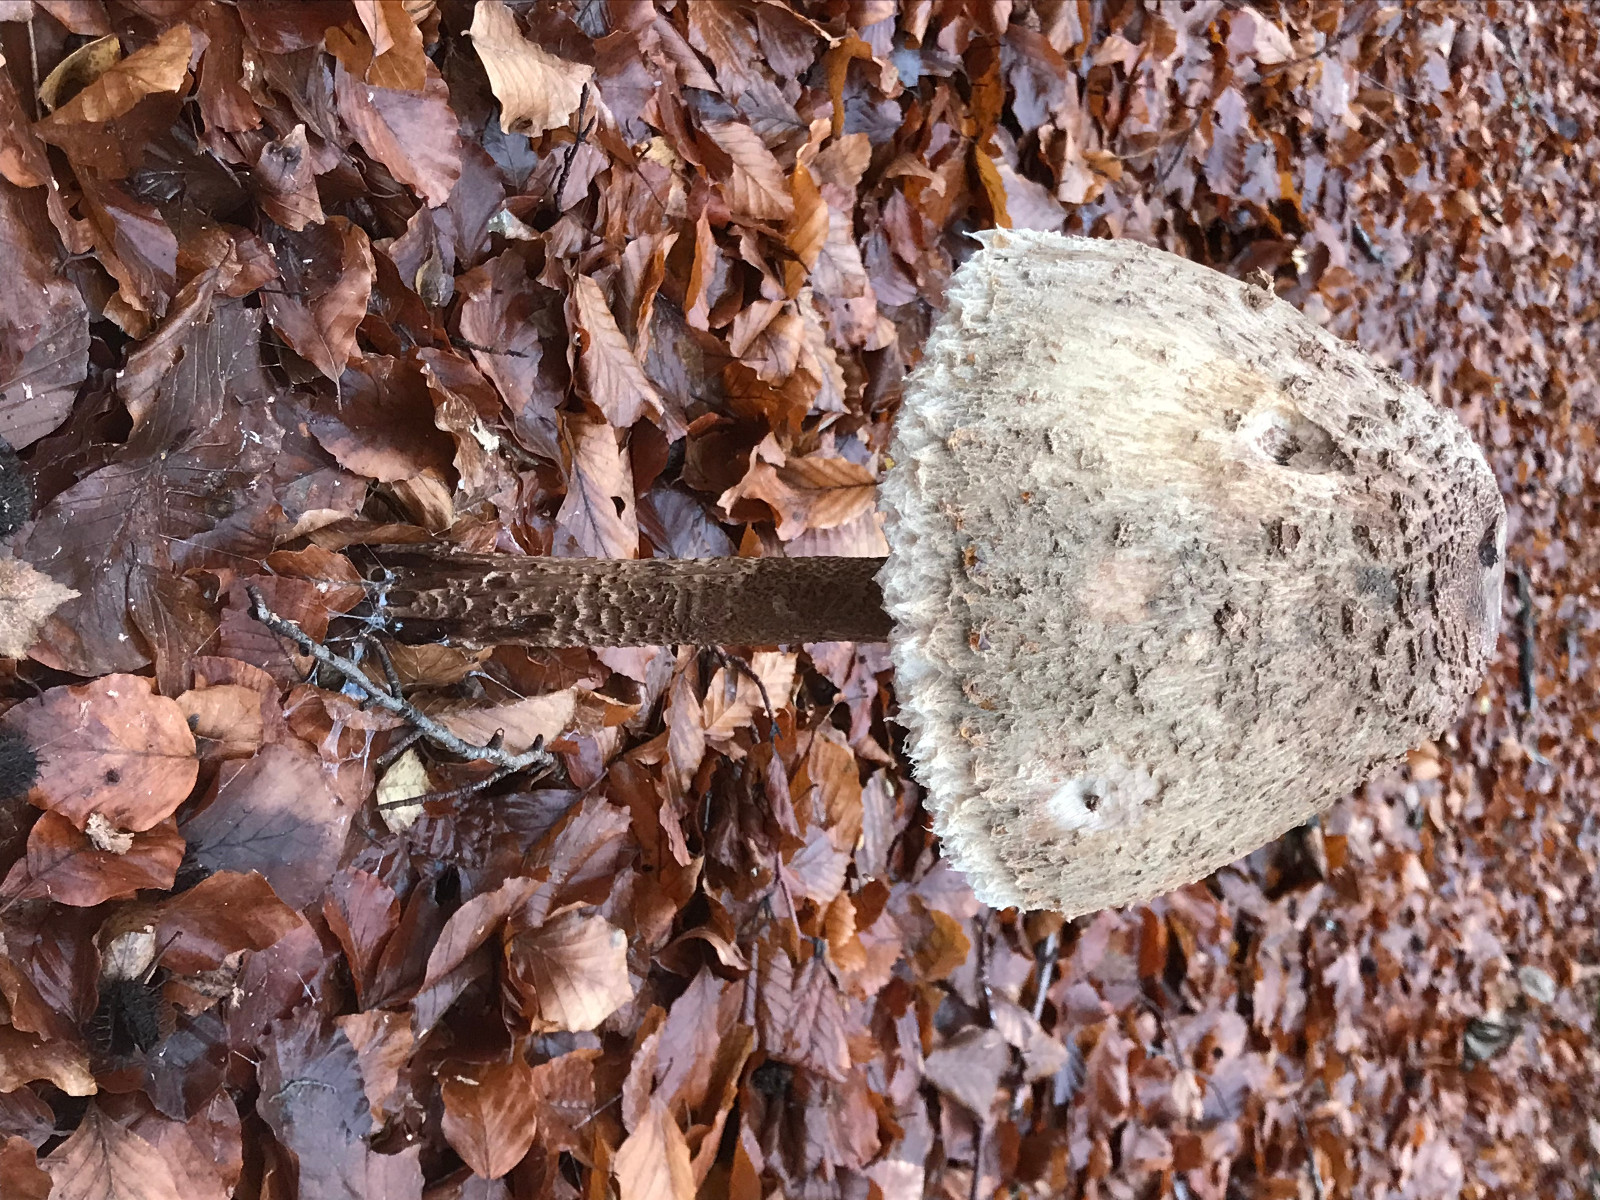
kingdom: Fungi
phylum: Basidiomycota
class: Agaricomycetes
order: Agaricales
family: Agaricaceae
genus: Macrolepiota
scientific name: Macrolepiota
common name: kæmpeparasolhat
